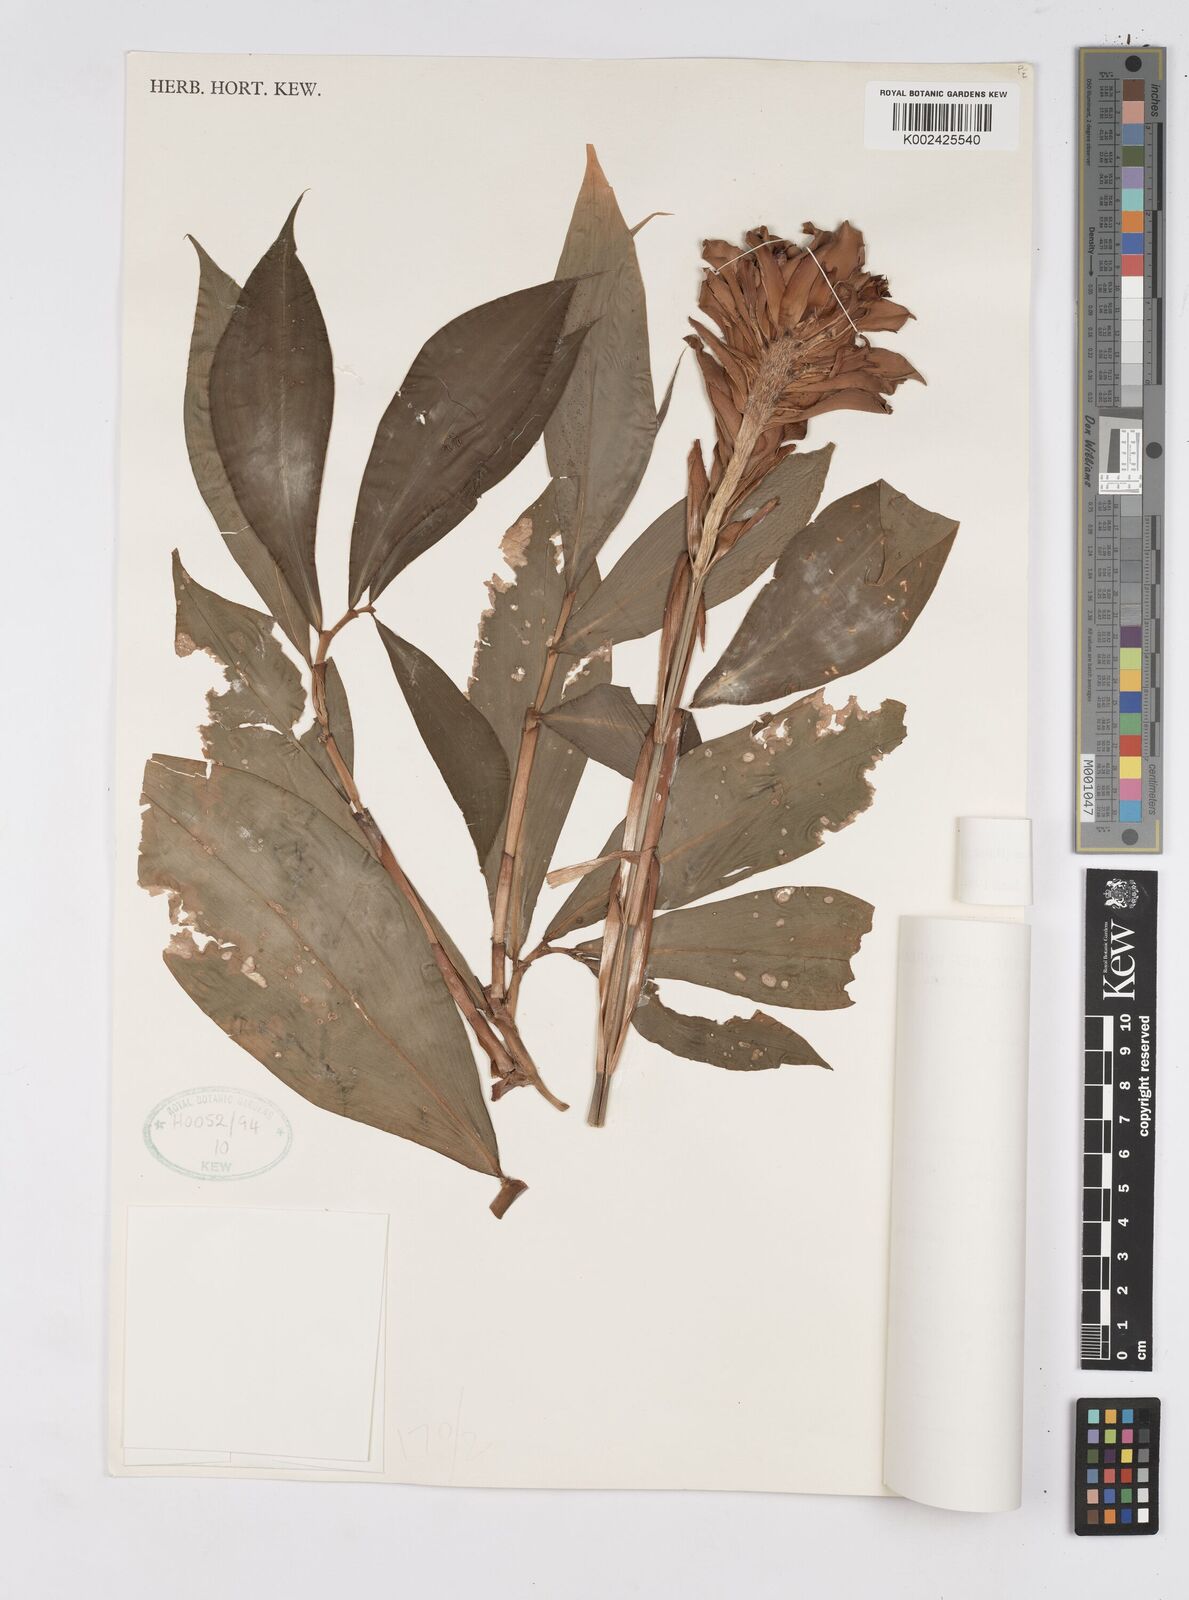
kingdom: Plantae
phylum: Tracheophyta
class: Liliopsida
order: Zingiberales
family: Costaceae
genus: Tapeinochilos
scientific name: Tapeinochilos ananassae
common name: Torch-ginger
